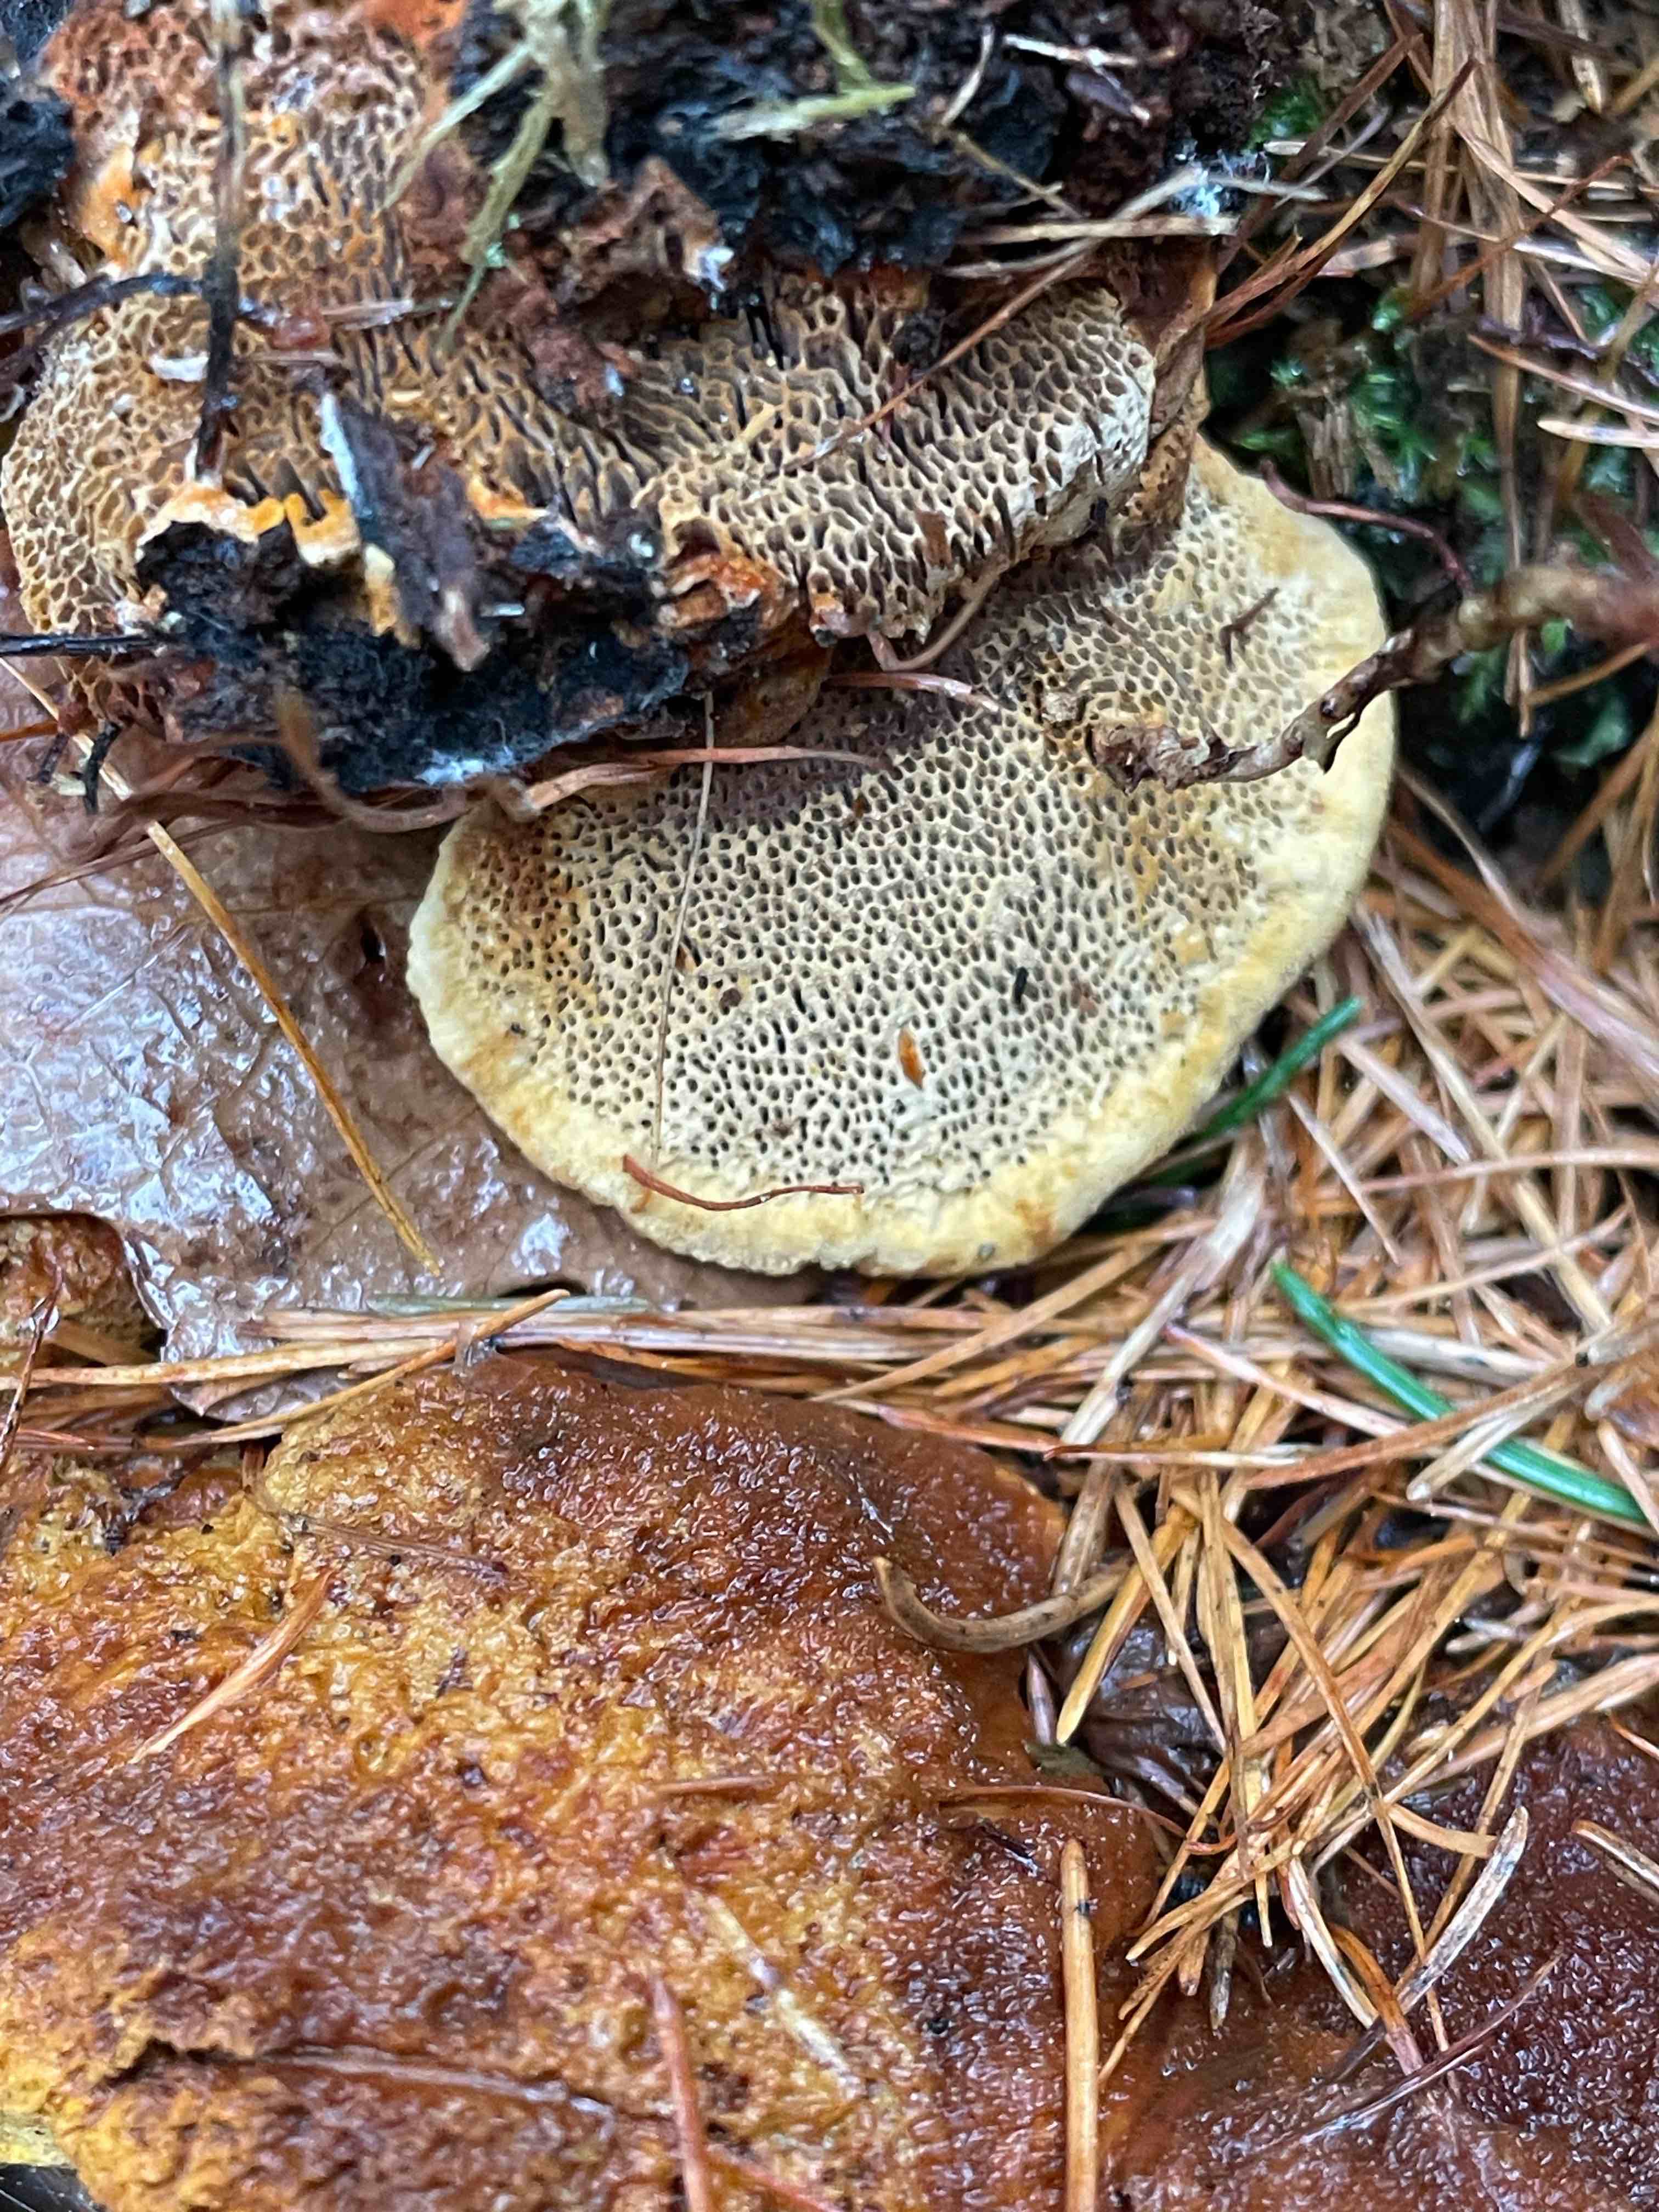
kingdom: Fungi
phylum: Basidiomycota
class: Agaricomycetes
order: Gloeophyllales
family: Gloeophyllaceae
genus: Gloeophyllum
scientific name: Gloeophyllum odoratum
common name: duftende korkhat
